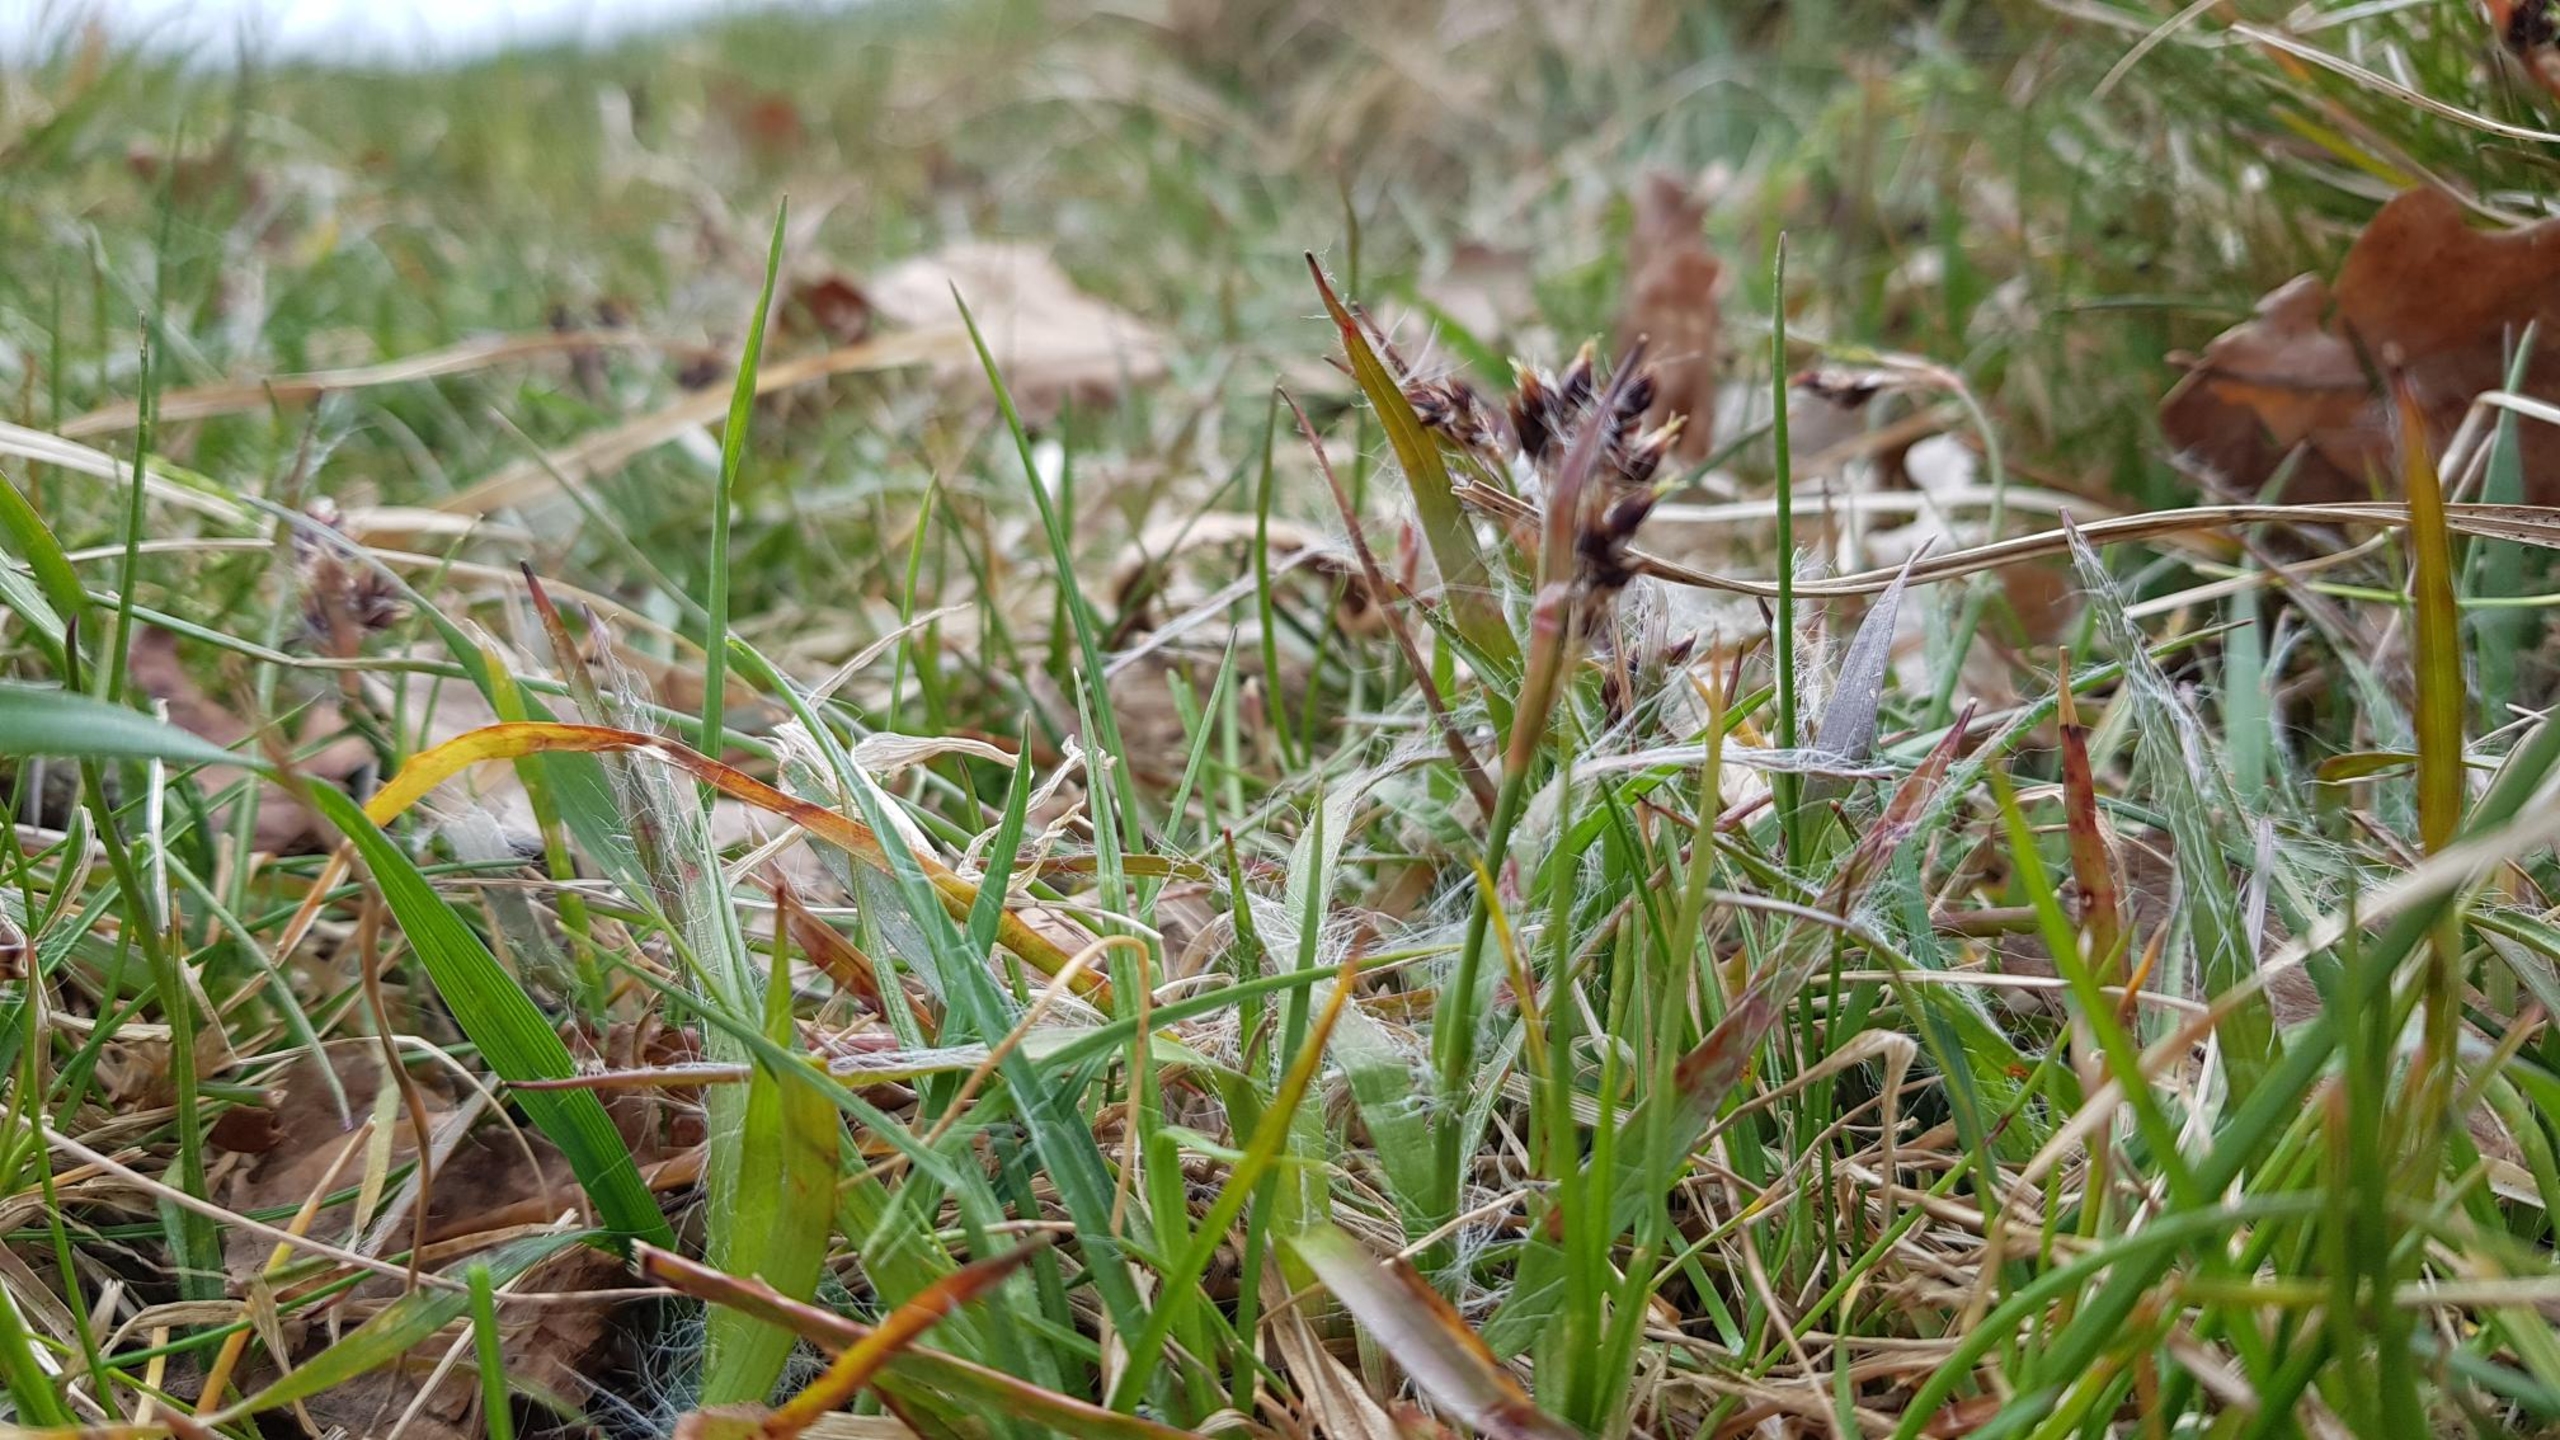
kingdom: Plantae
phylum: Tracheophyta
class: Liliopsida
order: Poales
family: Juncaceae
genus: Luzula
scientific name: Luzula campestris
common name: Mark-frytle
